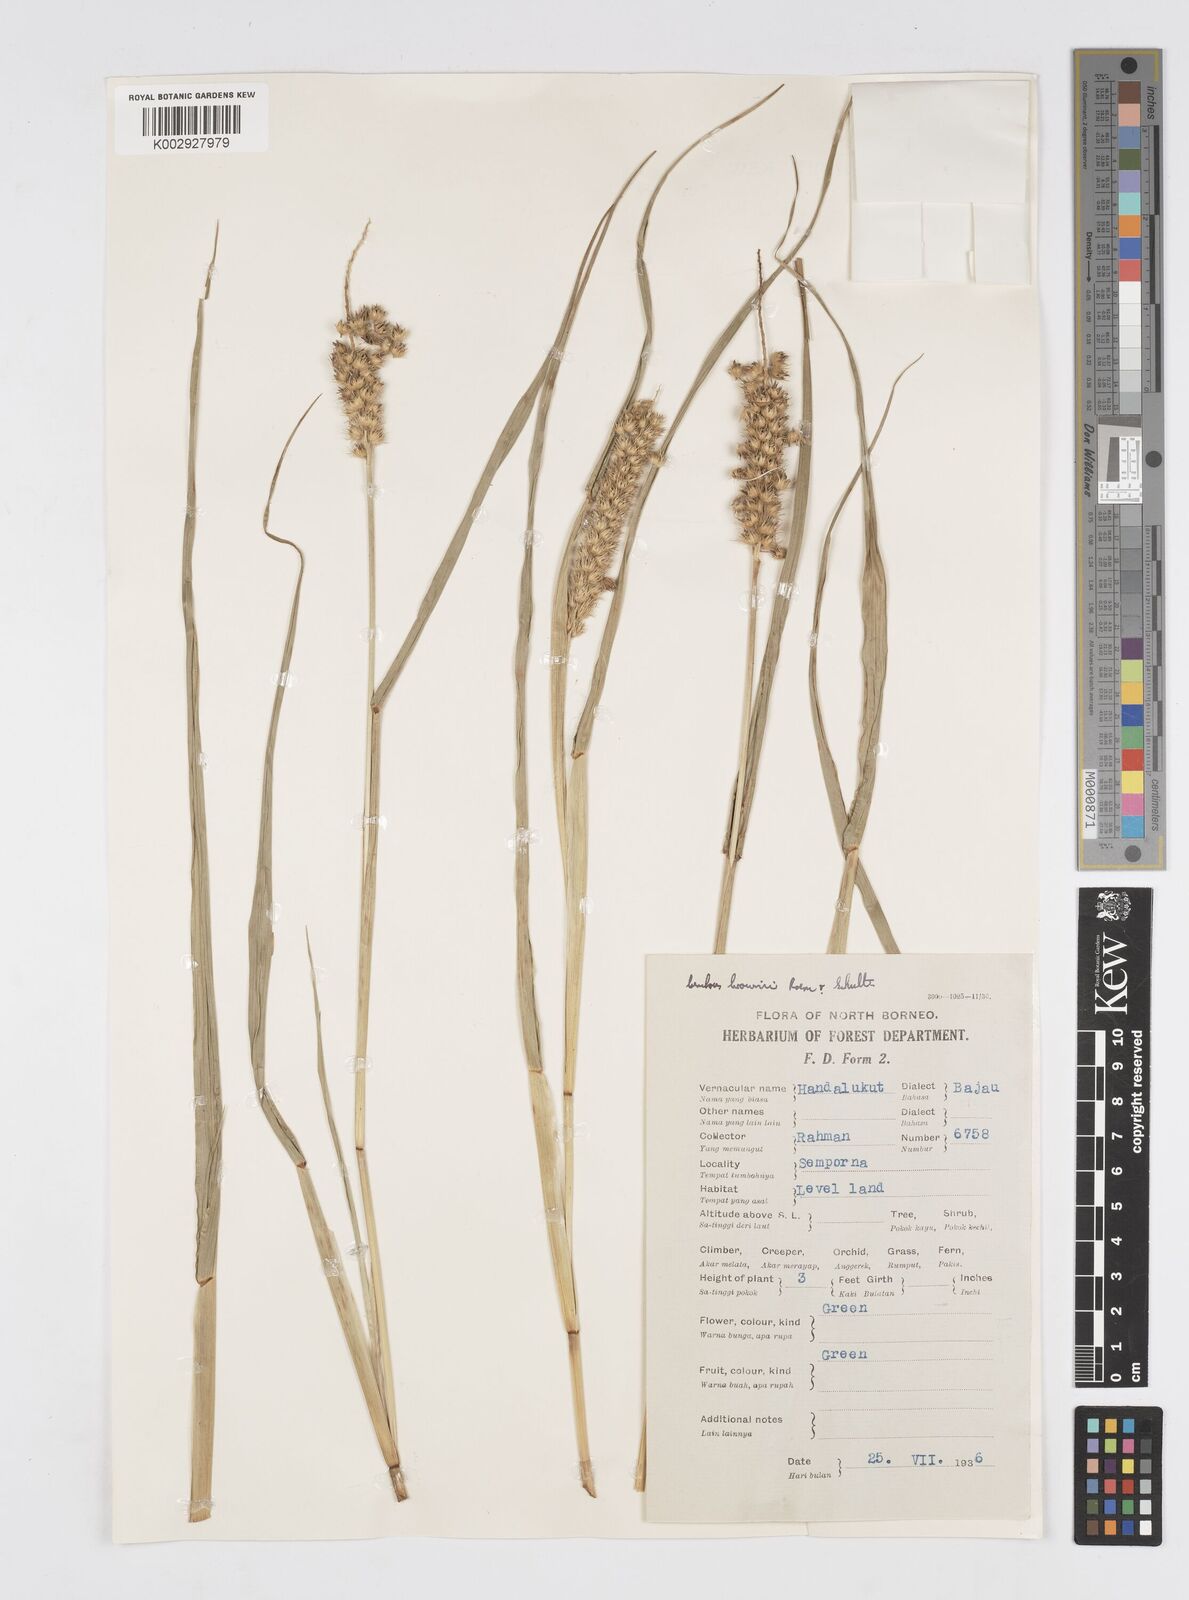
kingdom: Plantae
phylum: Tracheophyta
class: Liliopsida
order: Poales
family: Poaceae
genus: Cenchrus
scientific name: Cenchrus brownii
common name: Slim-bristle sandbur
